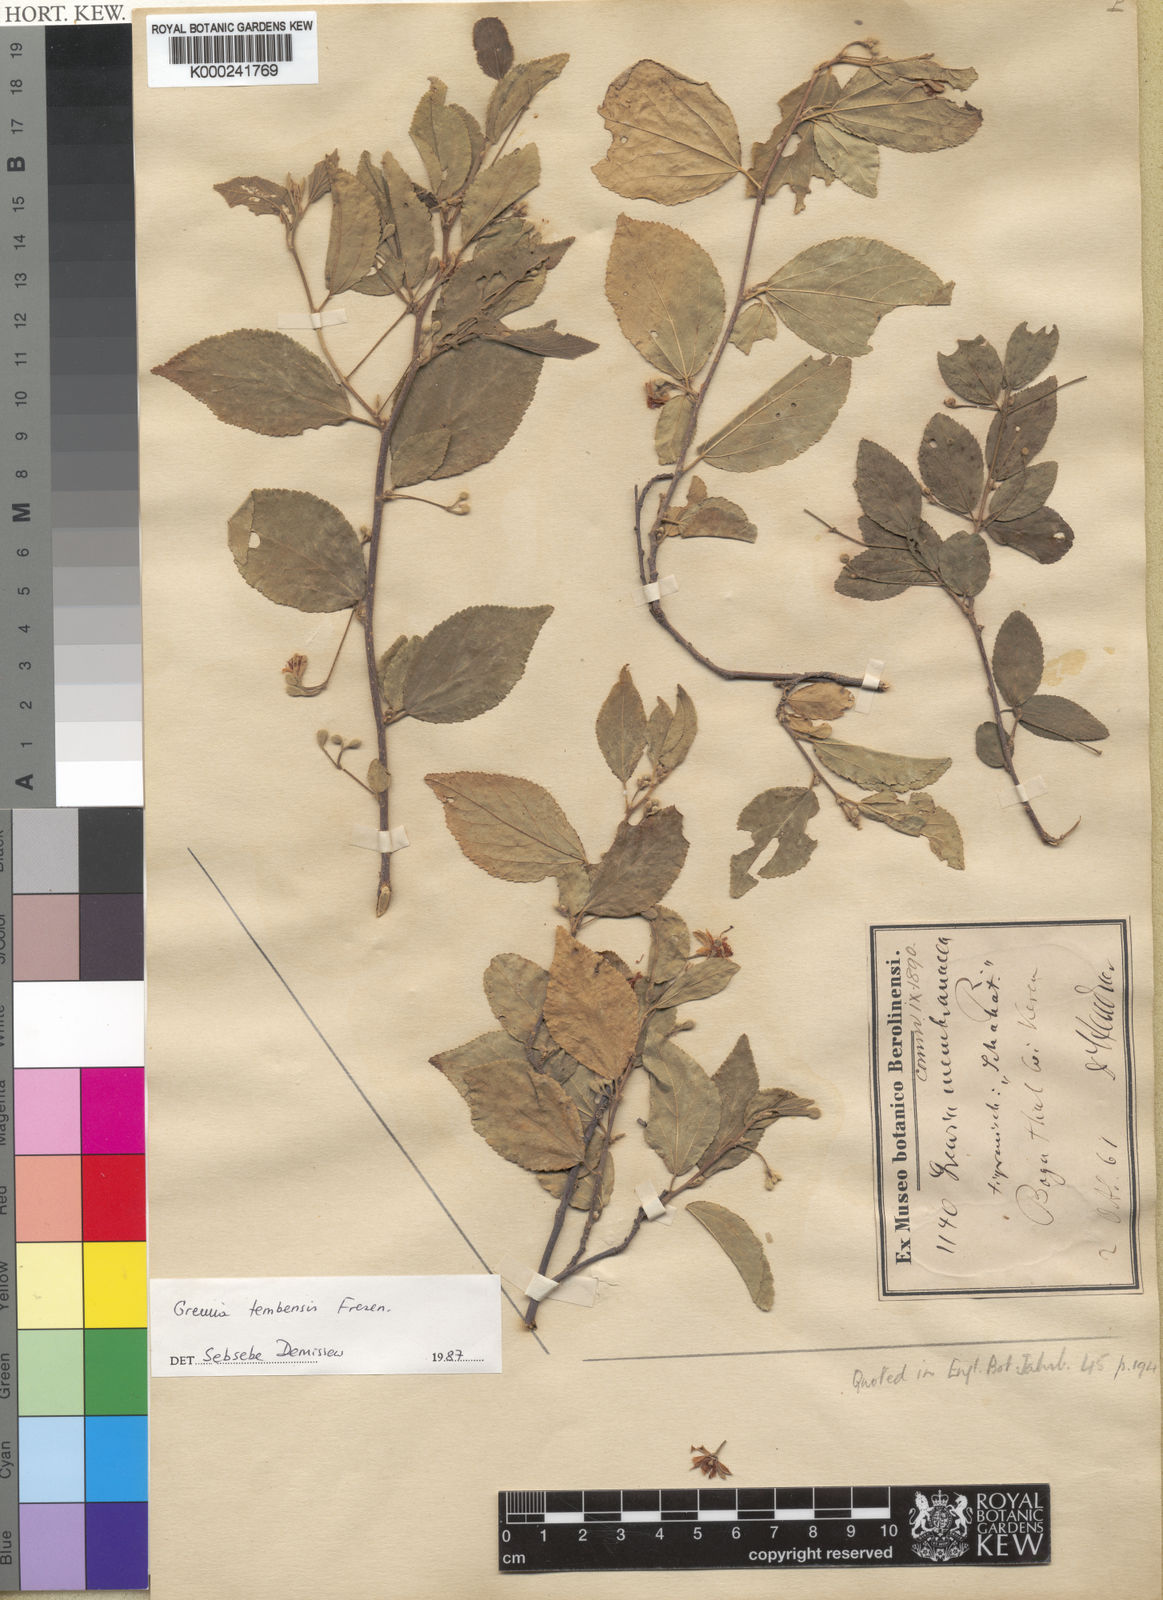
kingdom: Plantae
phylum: Tracheophyta
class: Magnoliopsida
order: Malvales
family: Malvaceae
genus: Grewia
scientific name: Grewia tembensis
